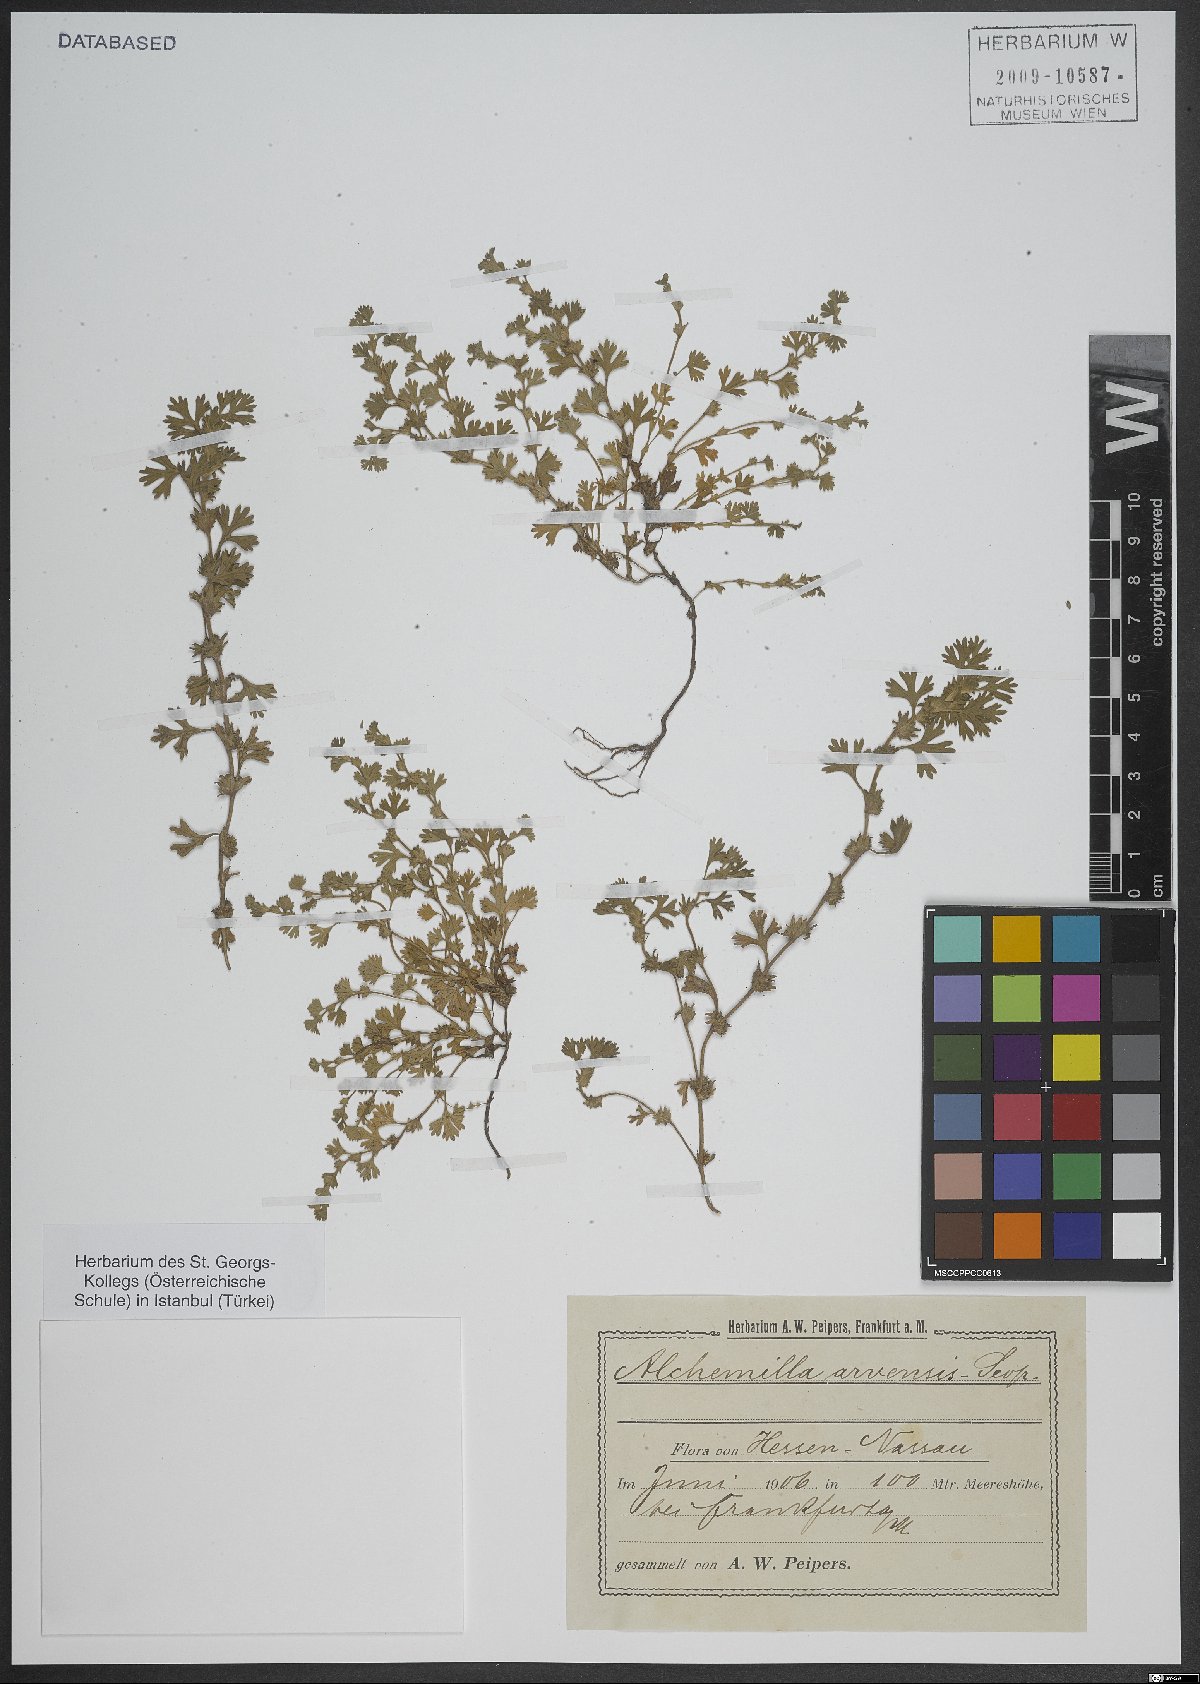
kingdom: Plantae
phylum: Tracheophyta
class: Magnoliopsida
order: Caryophyllales
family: Caryophyllaceae
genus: Silene
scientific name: Silene
